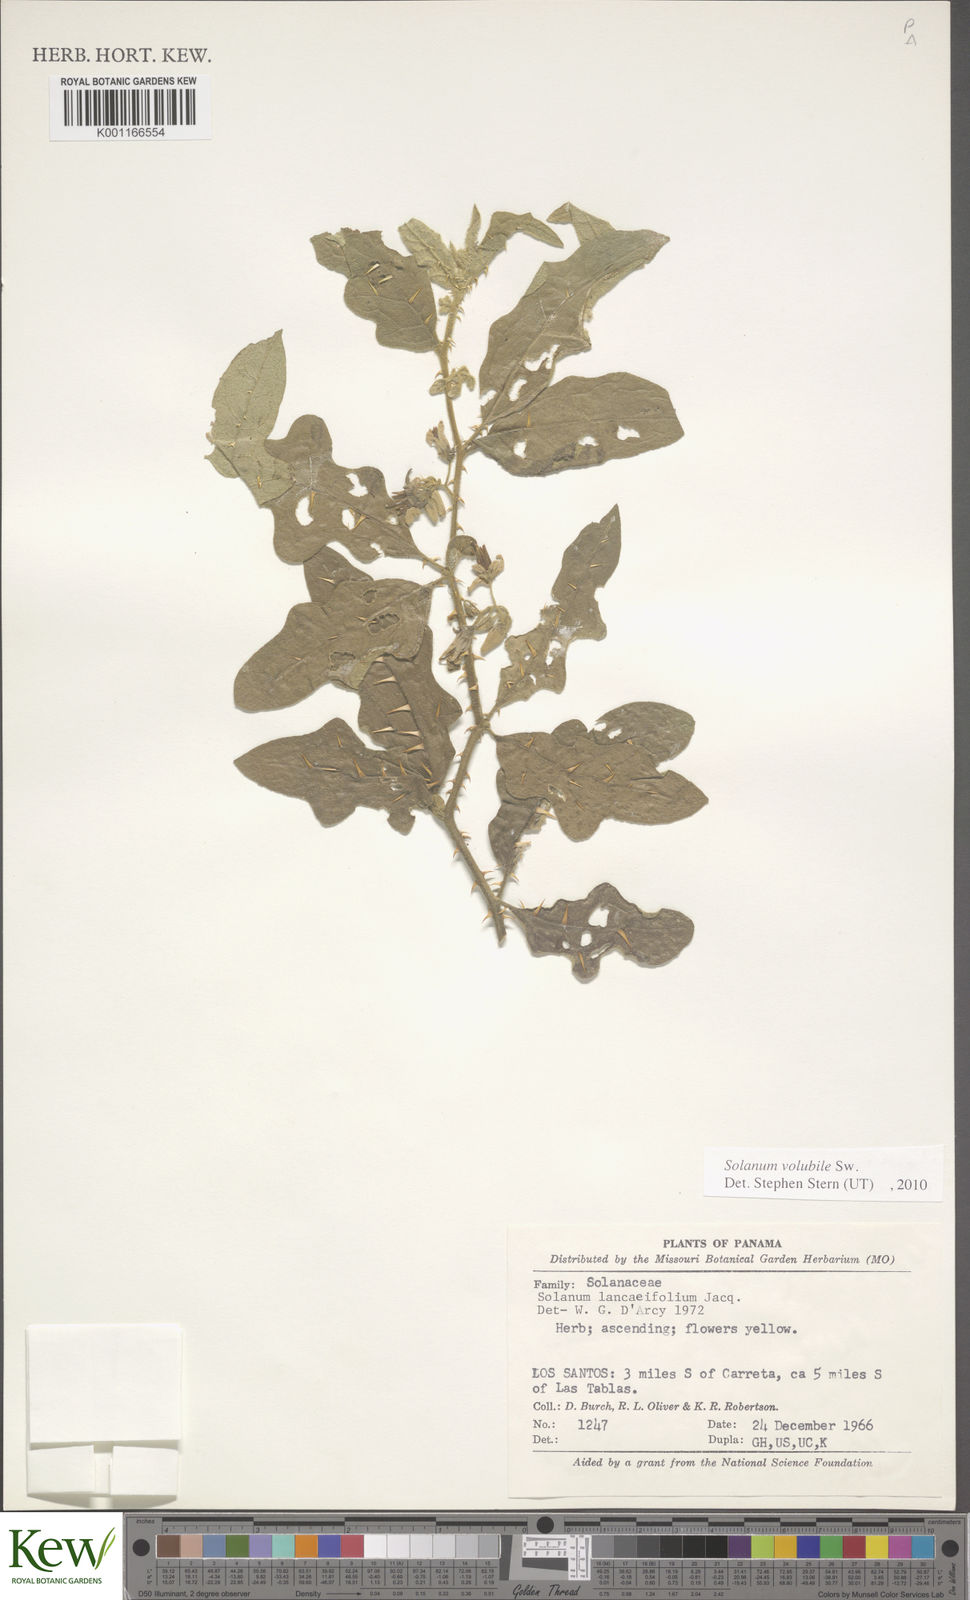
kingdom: Plantae
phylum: Tracheophyta
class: Magnoliopsida
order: Solanales
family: Solanaceae
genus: Solanum
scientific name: Solanum volubile
